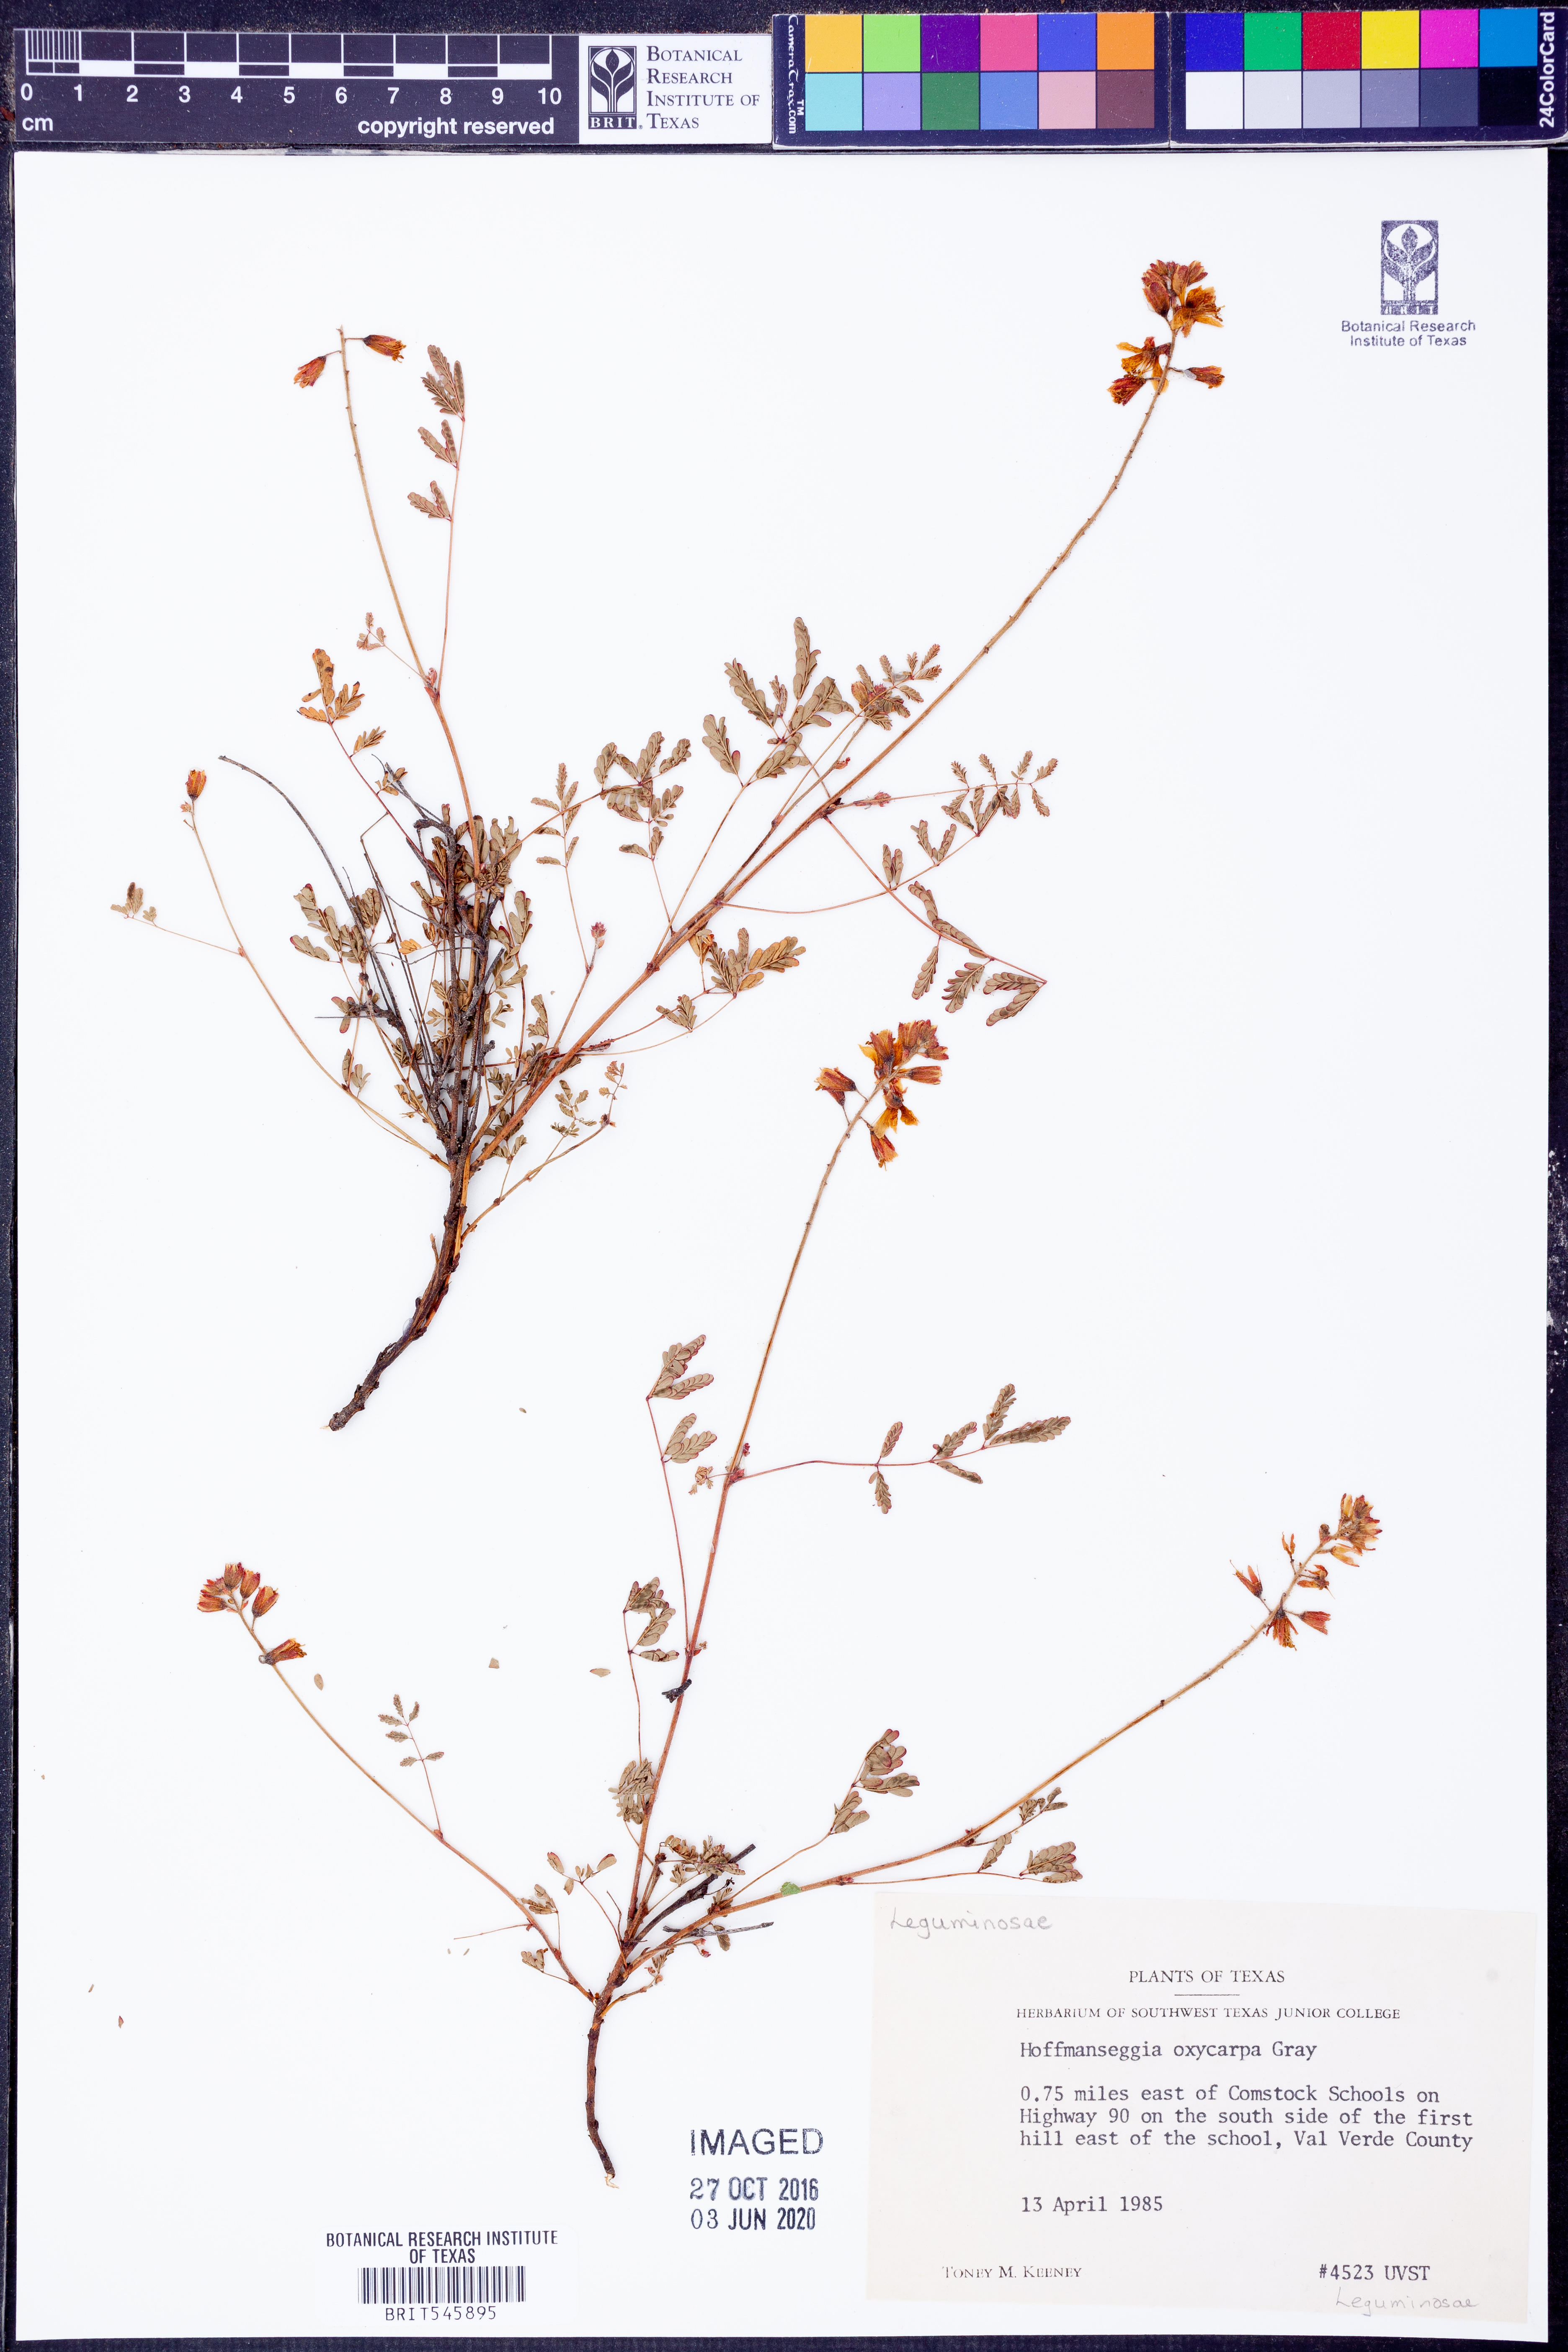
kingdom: Plantae
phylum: Tracheophyta
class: Magnoliopsida
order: Fabales
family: Fabaceae
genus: Hoffmannseggia
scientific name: Hoffmannseggia oxycarpa
